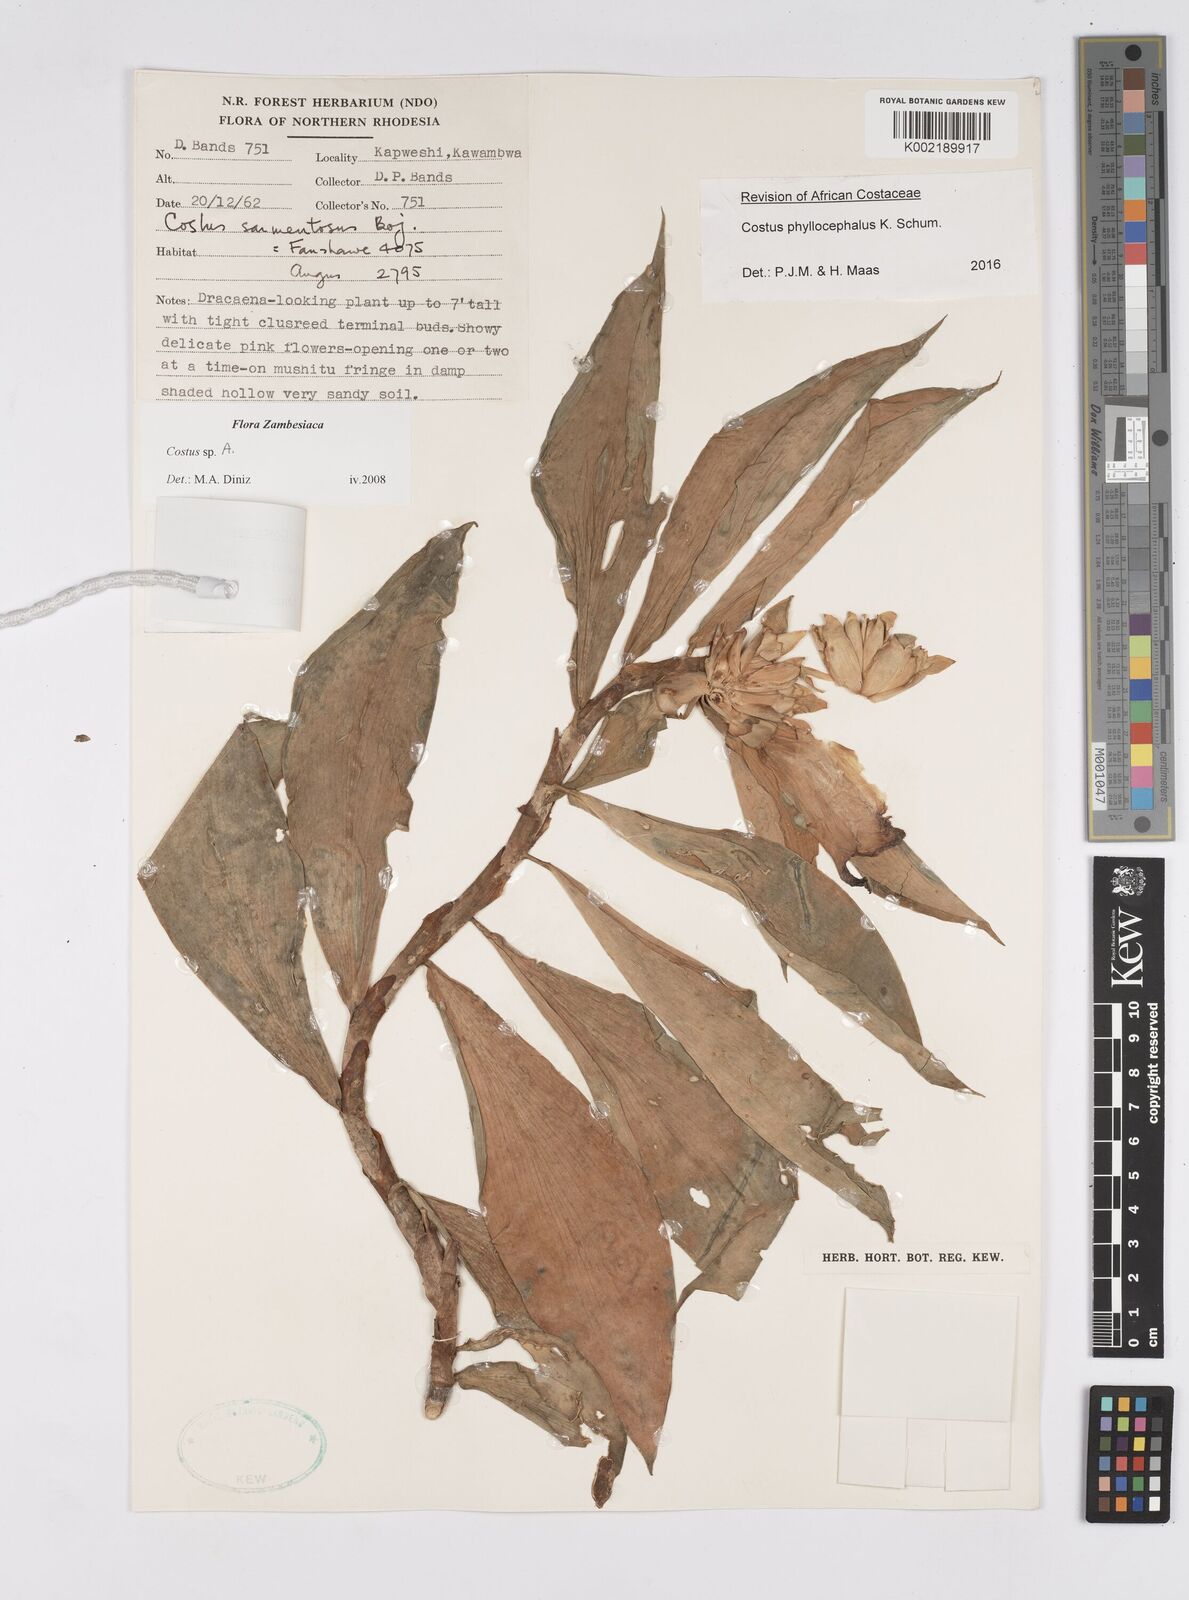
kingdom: Plantae
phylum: Tracheophyta
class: Liliopsida
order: Zingiberales
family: Costaceae
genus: Costus
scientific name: Costus phyllocephalus
